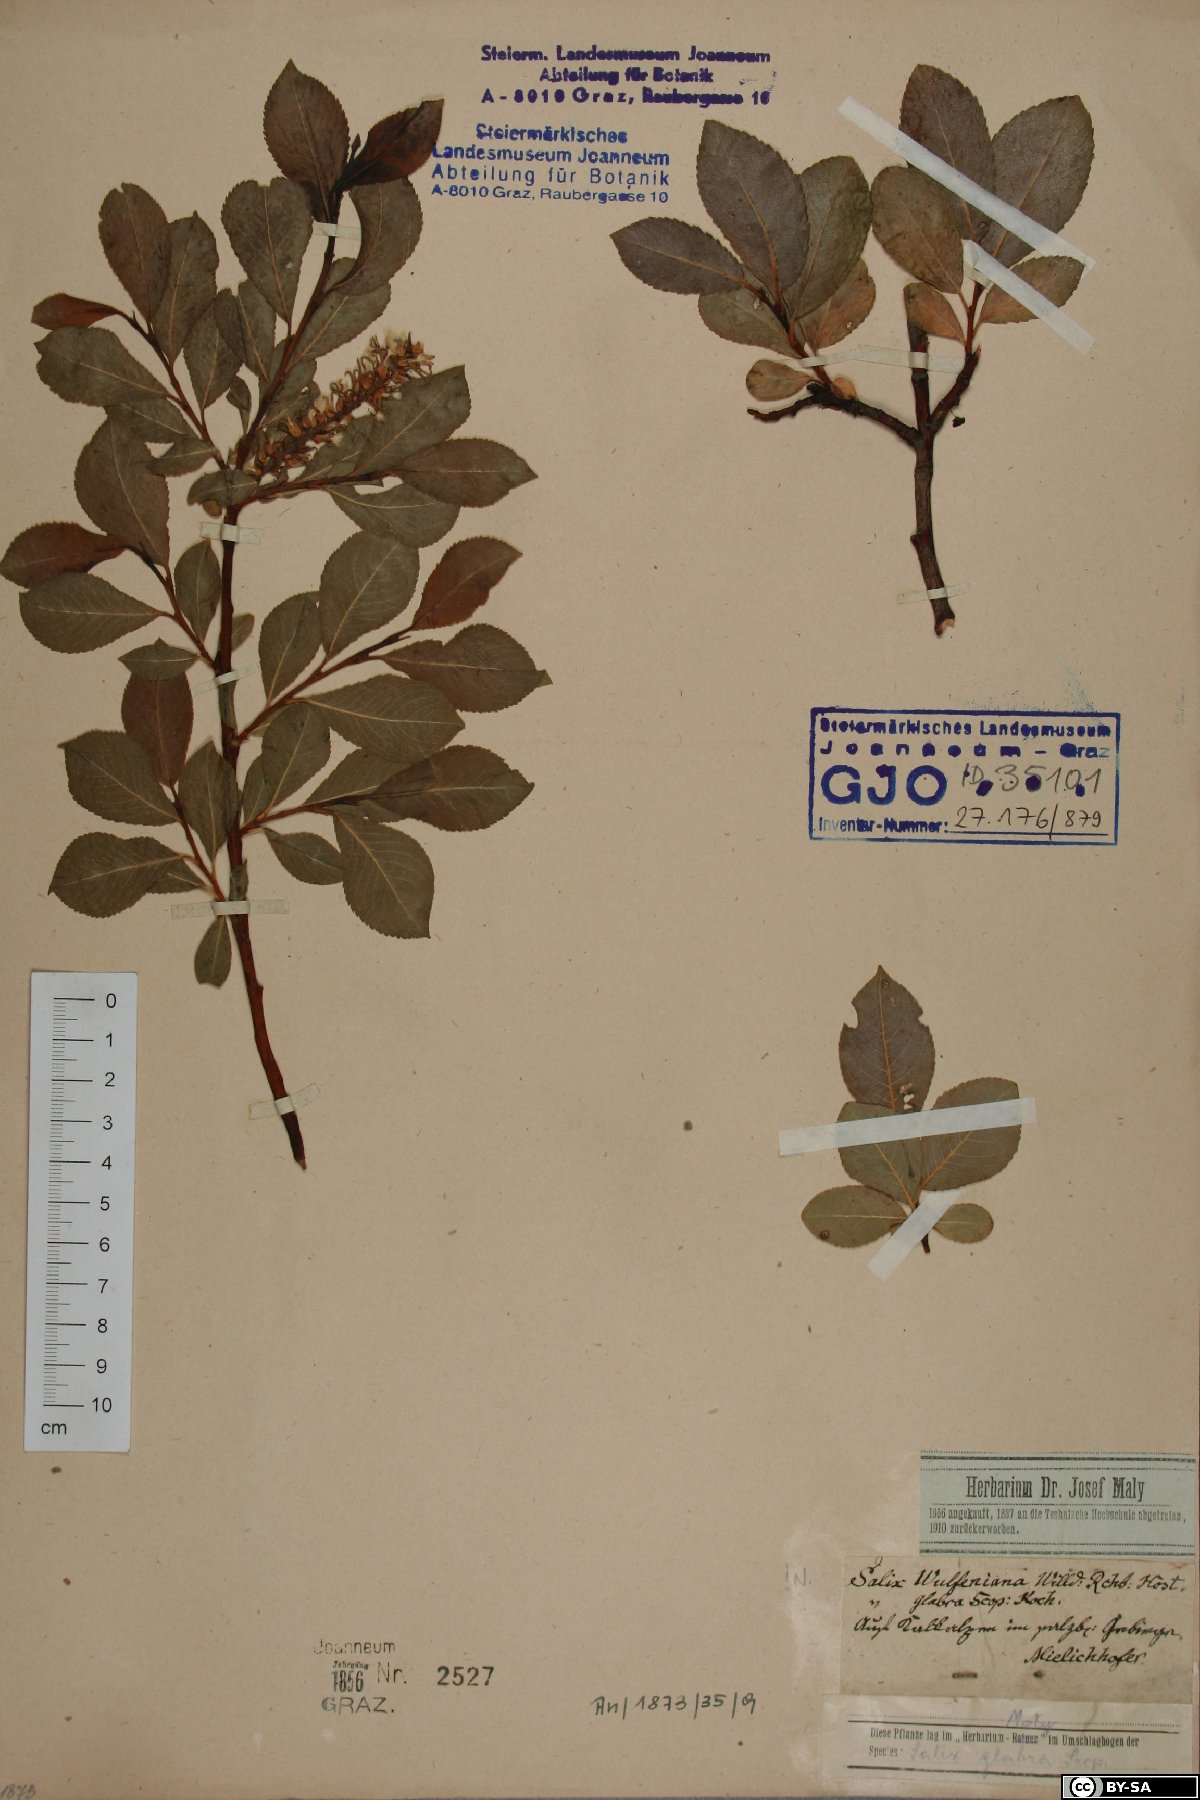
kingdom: Plantae
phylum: Tracheophyta
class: Magnoliopsida
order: Malpighiales
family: Salicaceae
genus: Salix
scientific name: Salix glabra
